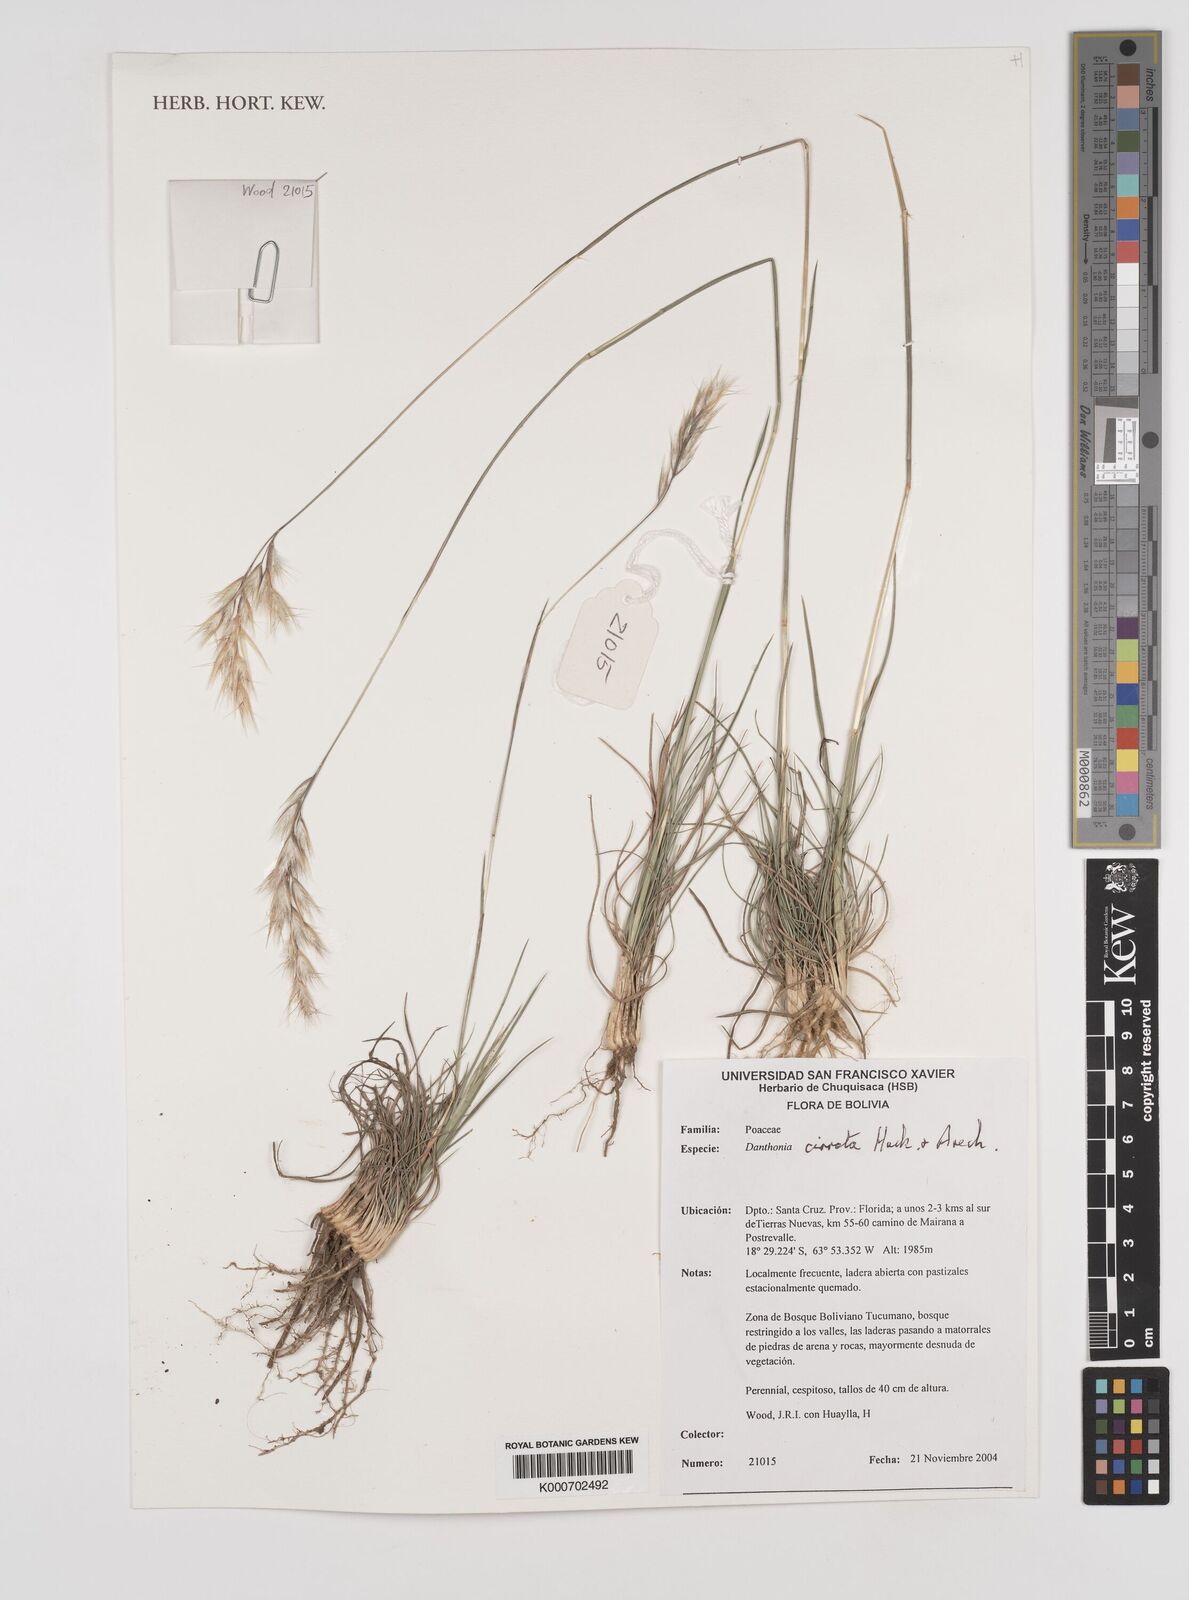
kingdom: Plantae
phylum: Tracheophyta
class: Liliopsida
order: Poales
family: Poaceae
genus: Danthonia
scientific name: Danthonia cirrata
